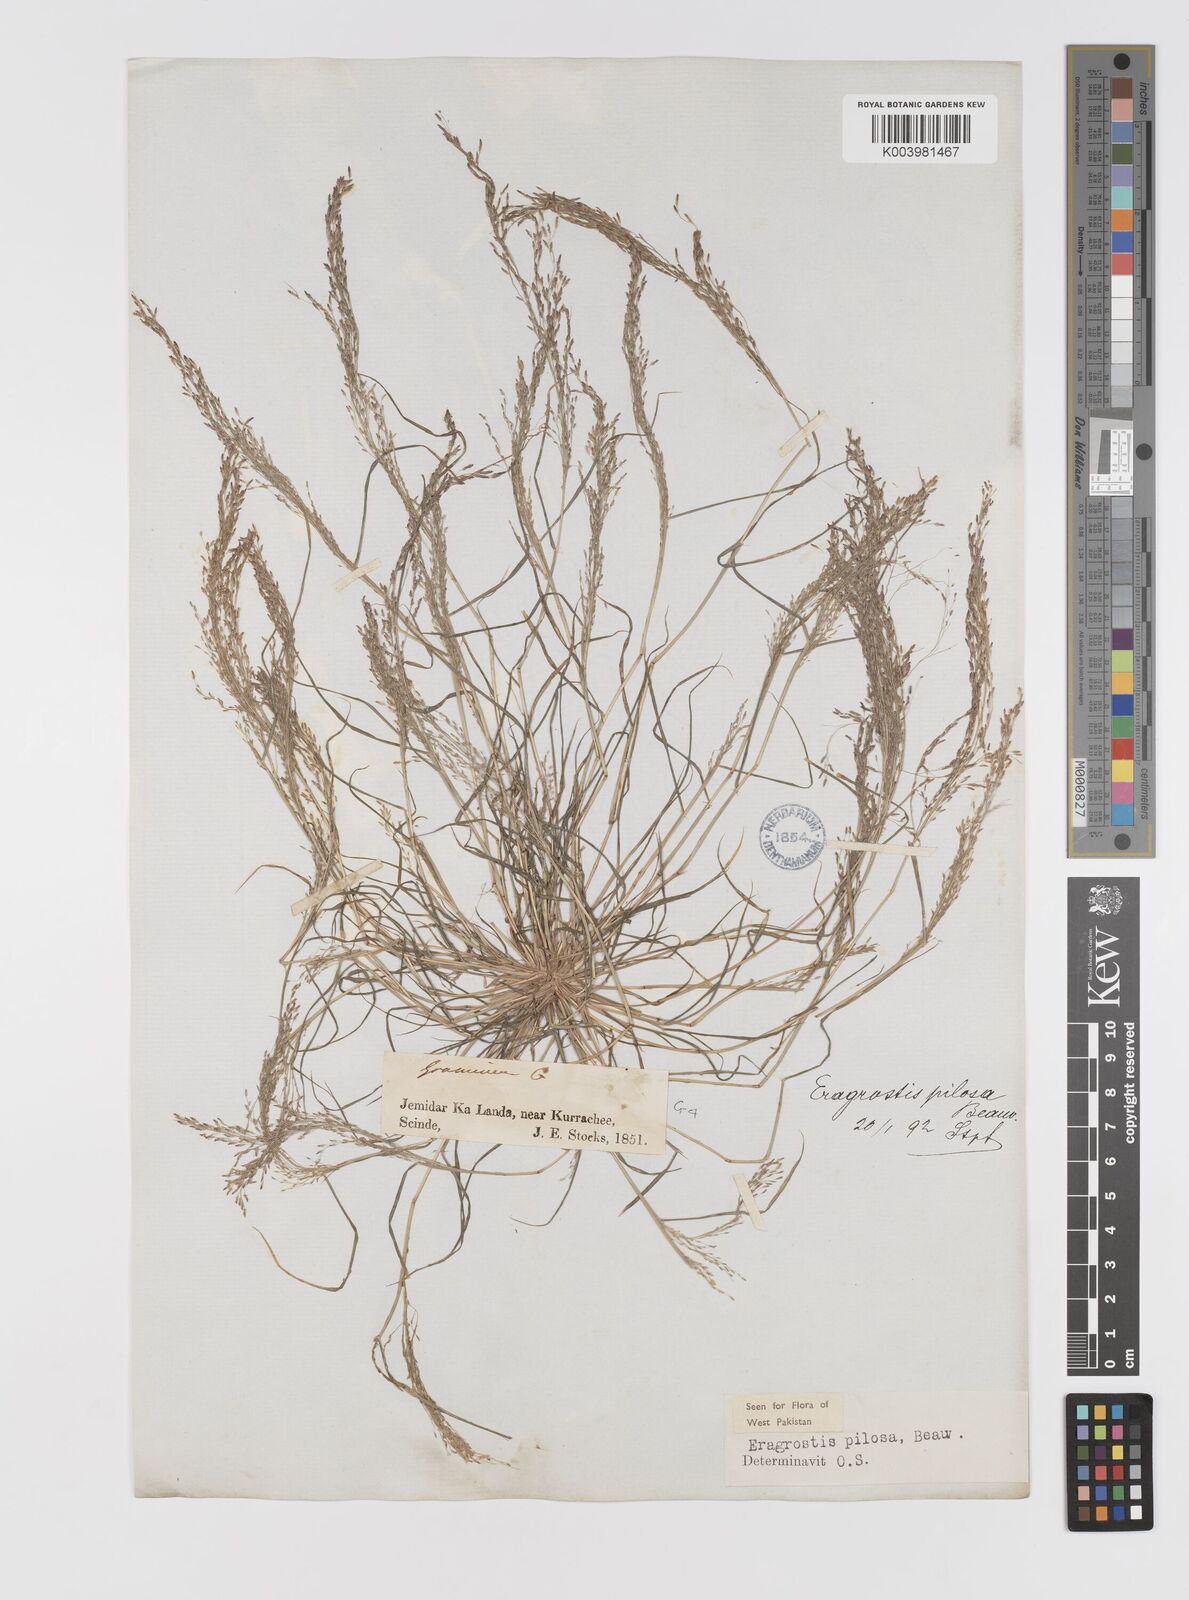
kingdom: Plantae
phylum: Tracheophyta
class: Liliopsida
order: Poales
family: Poaceae
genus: Eragrostis
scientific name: Eragrostis pilosa
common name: Indian lovegrass
